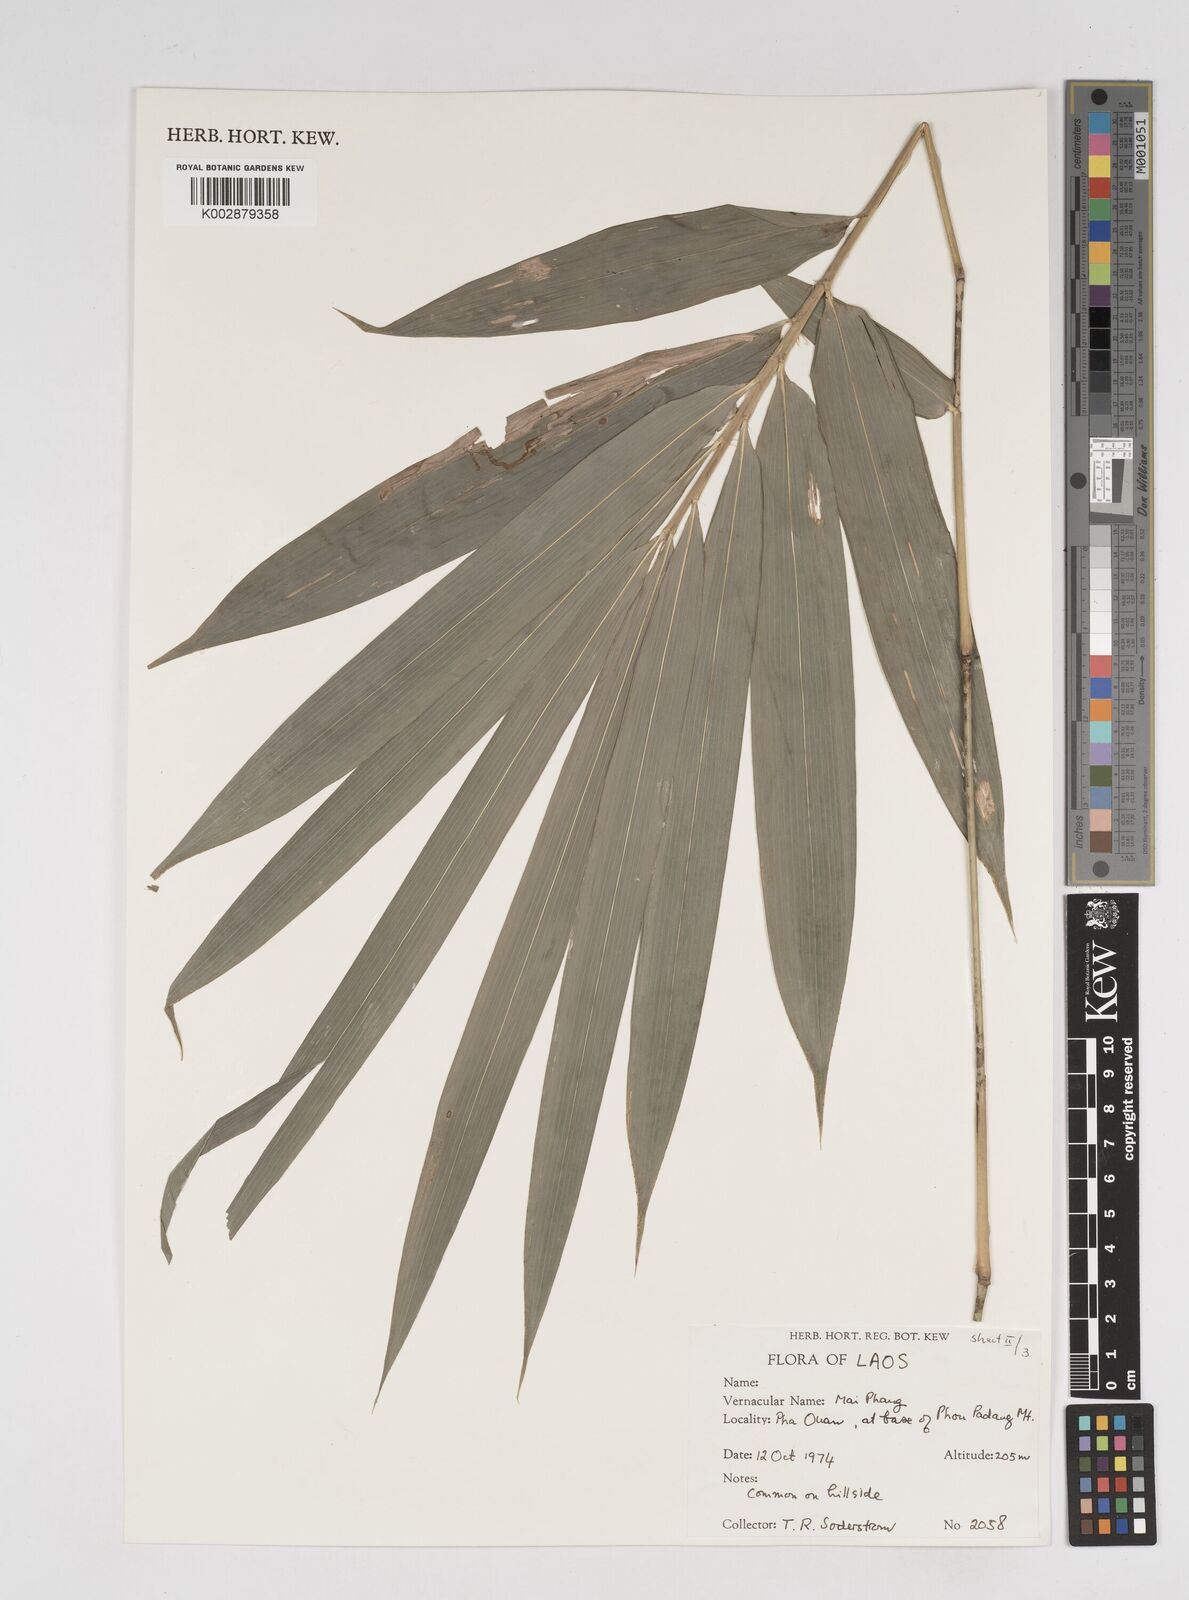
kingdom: Plantae
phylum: Tracheophyta
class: Liliopsida
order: Poales
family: Poaceae
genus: Dendrocalamus
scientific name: Dendrocalamus
